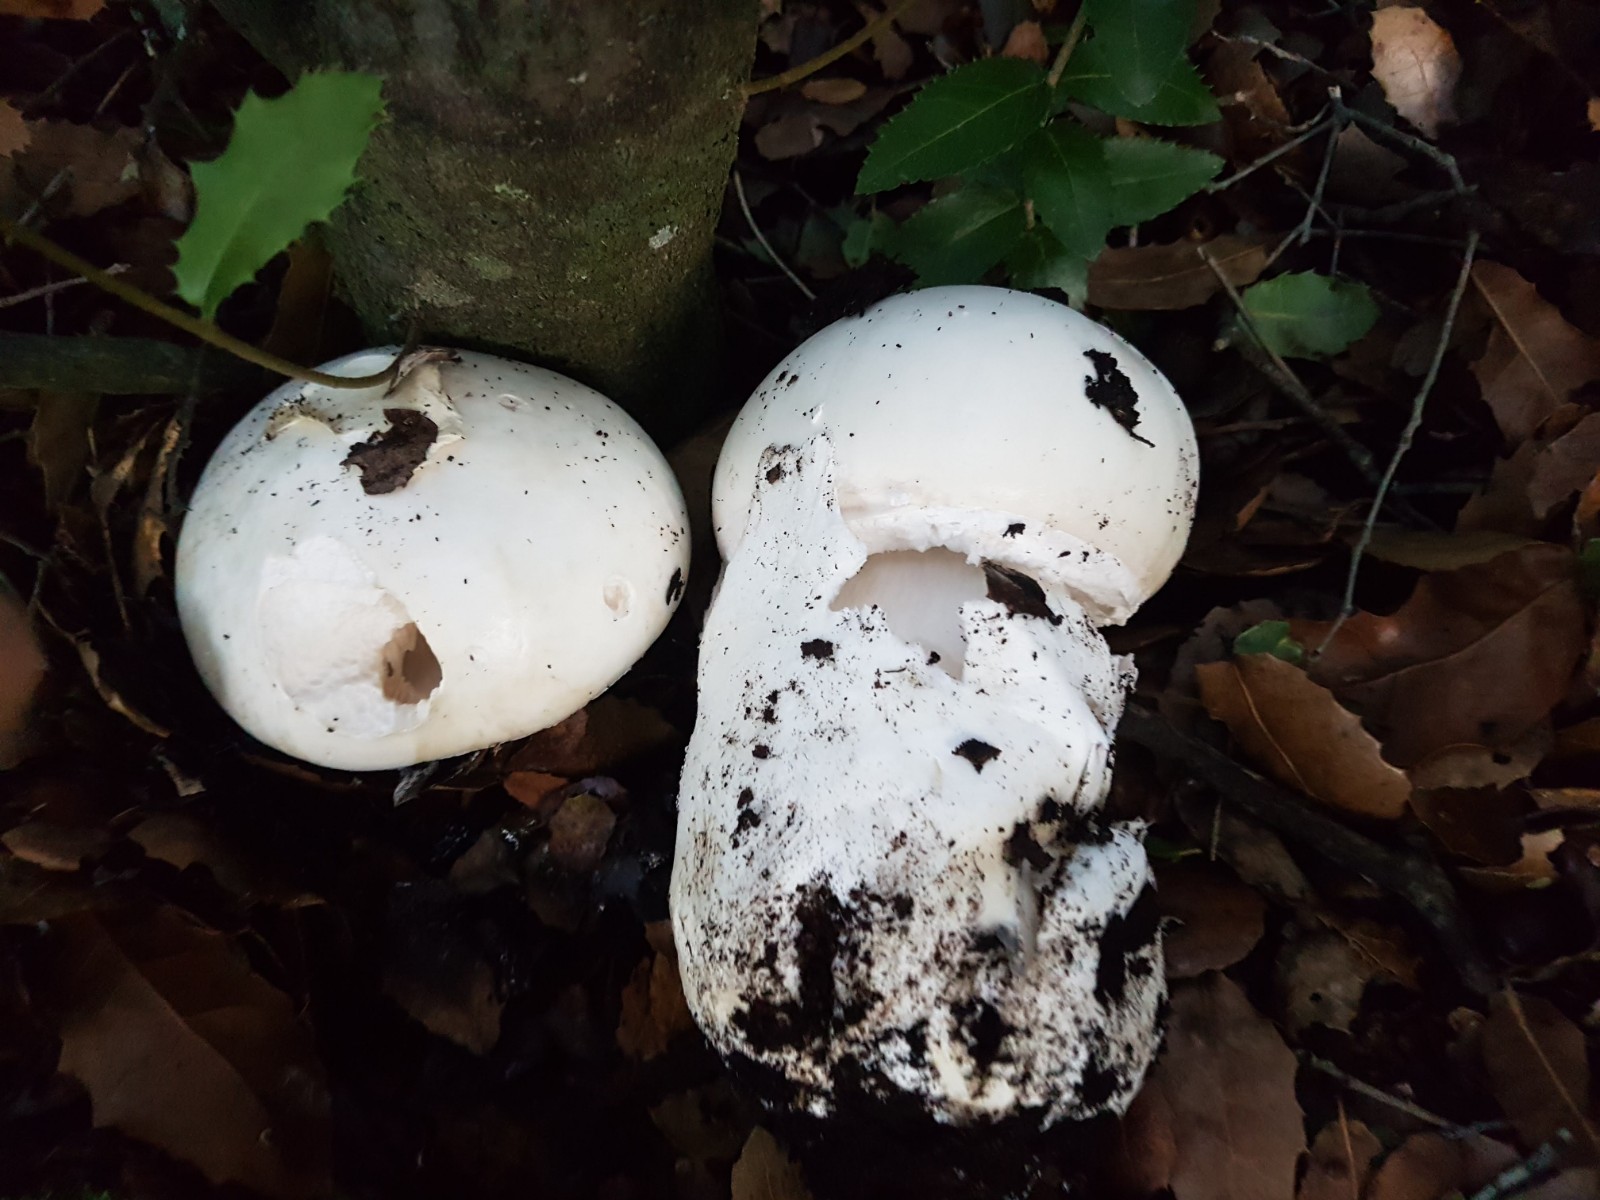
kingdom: Fungi
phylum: Basidiomycota
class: Agaricomycetes
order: Agaricales
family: Amanitaceae
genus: Amanita
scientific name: Amanita ovoidea
